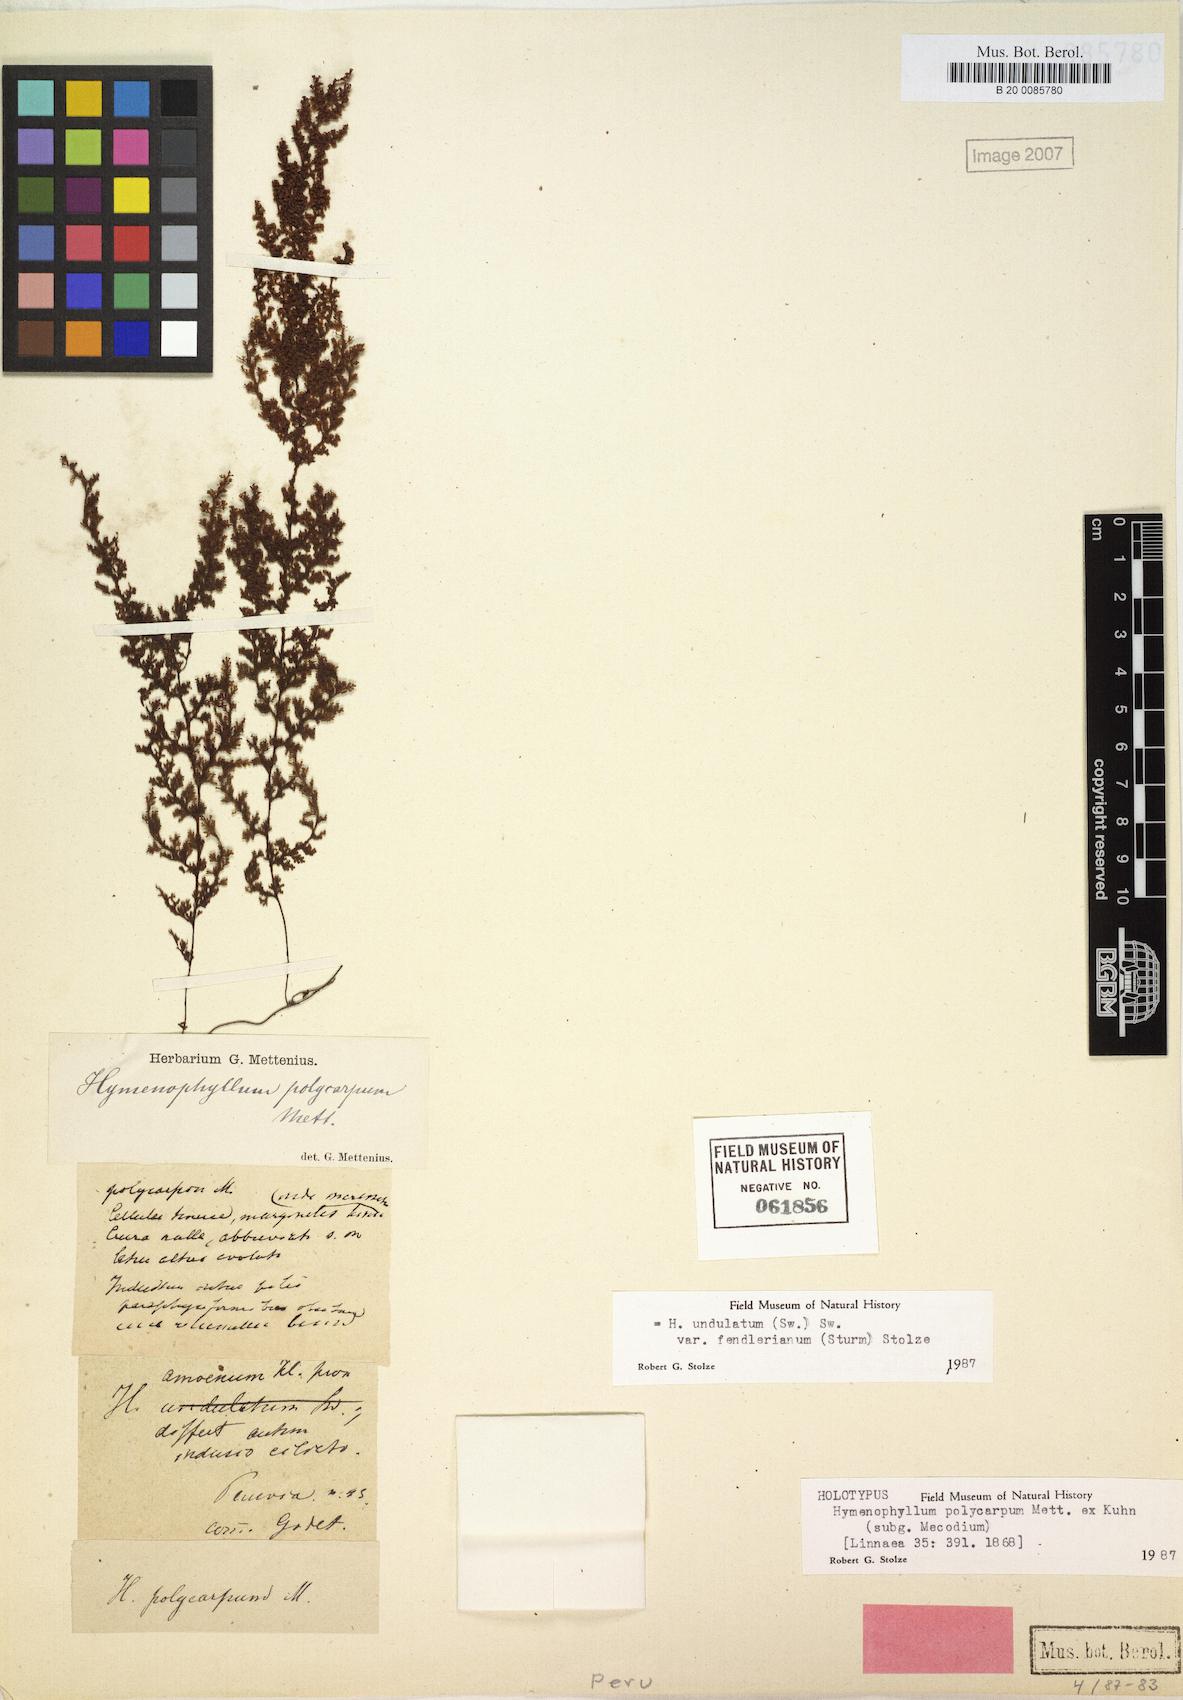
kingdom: Plantae
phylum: Tracheophyta
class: Polypodiopsida
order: Hymenophyllales
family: Hymenophyllaceae
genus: Hymenophyllum
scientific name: Hymenophyllum fendlerianum
